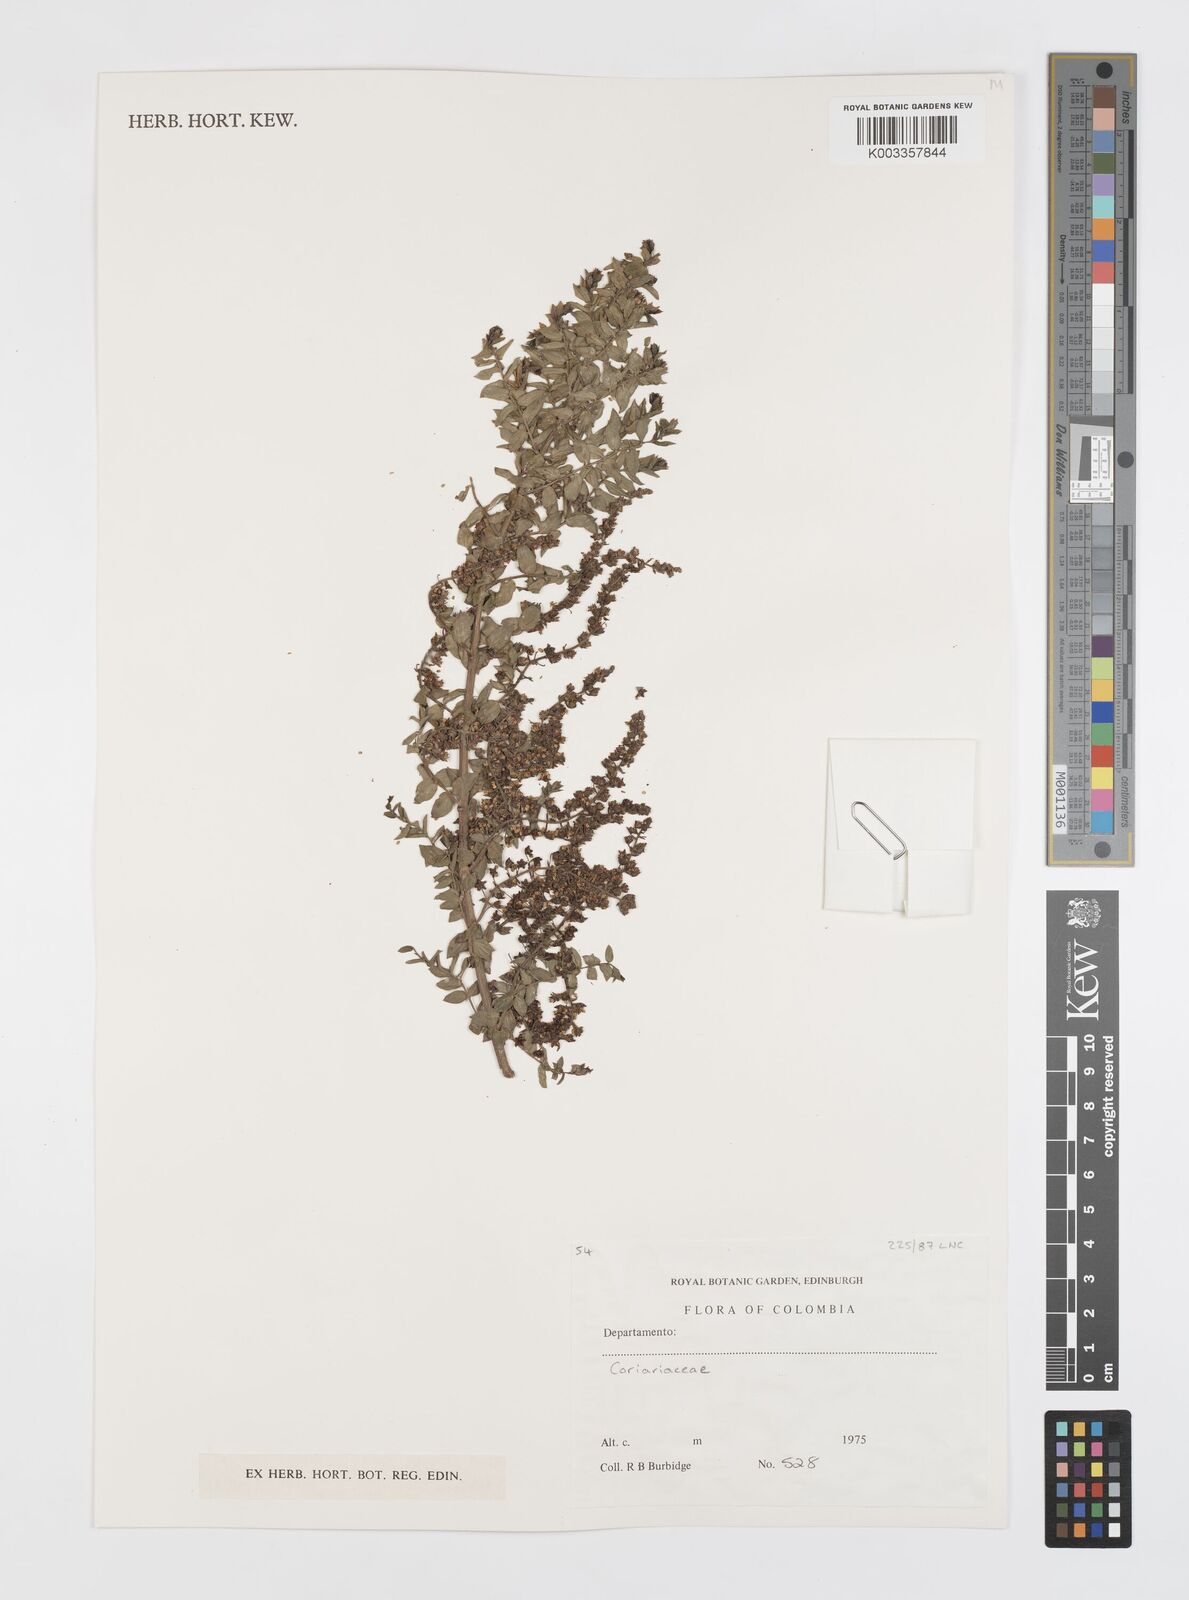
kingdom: Plantae
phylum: Tracheophyta
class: Magnoliopsida
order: Cucurbitales
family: Coriariaceae
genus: Coriaria
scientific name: Coriaria microphylla
